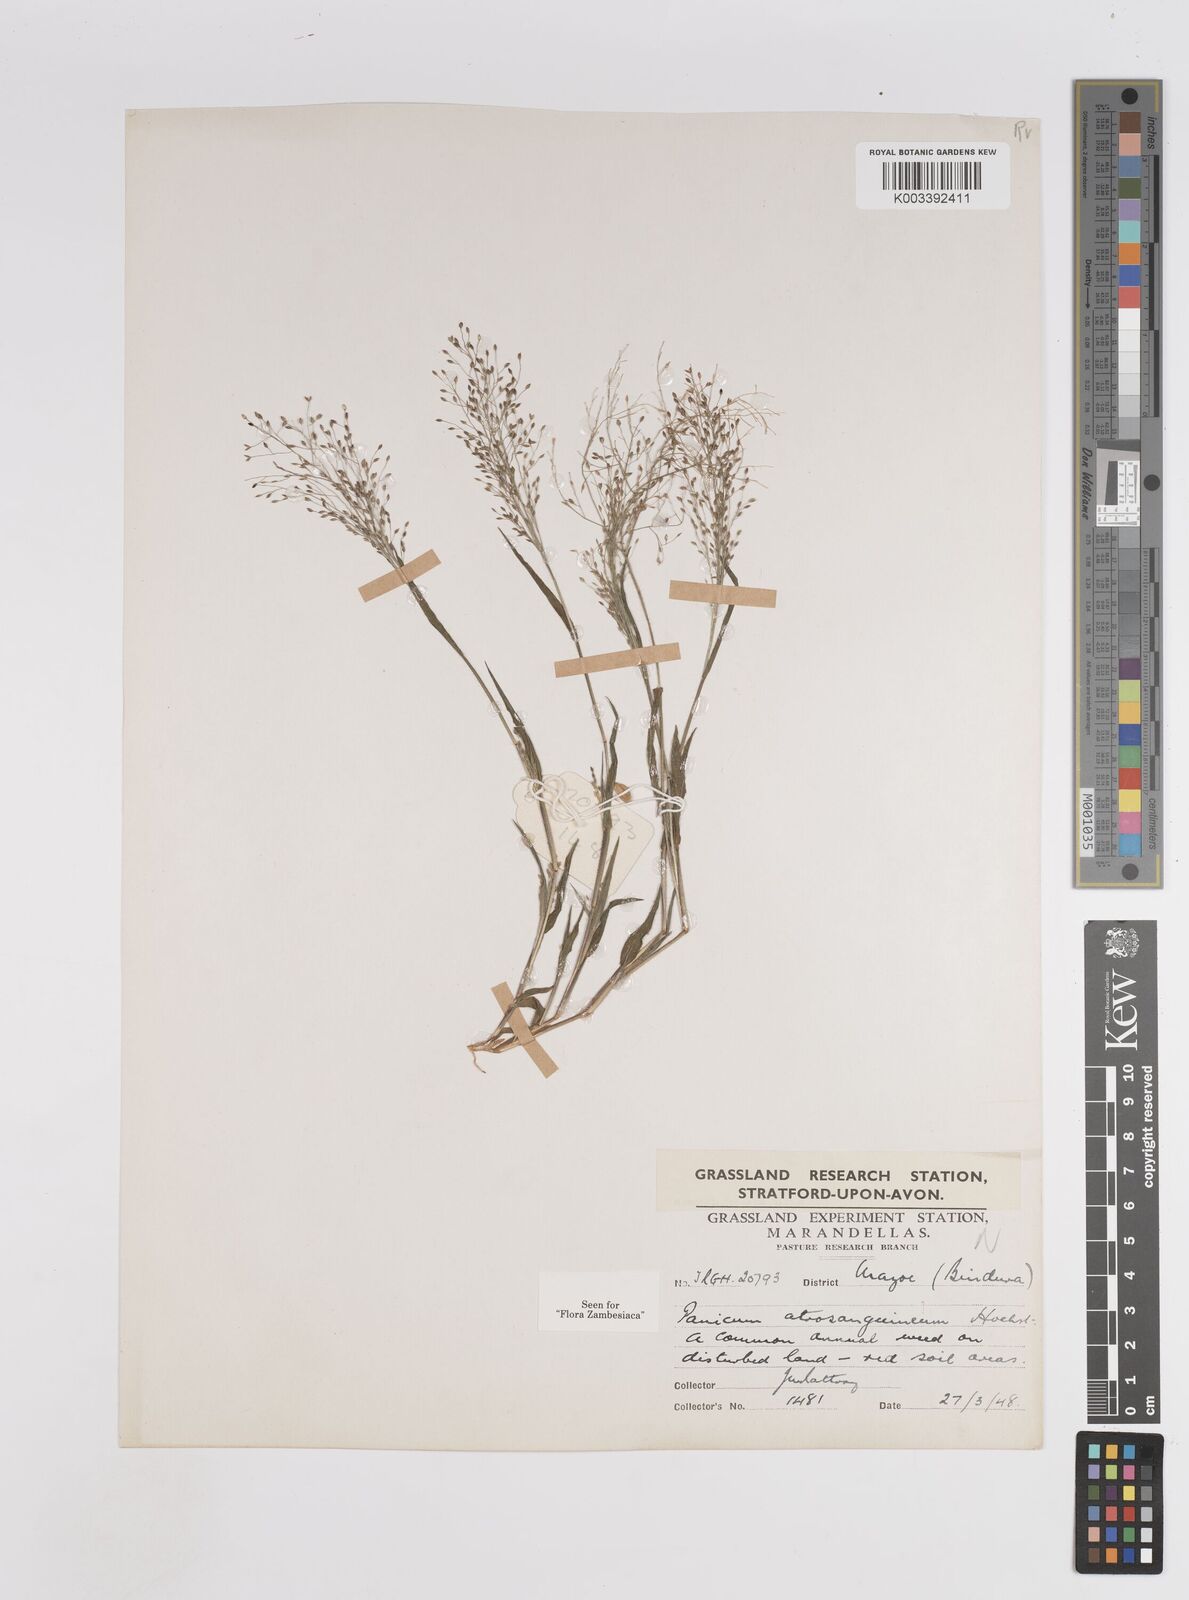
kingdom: Plantae
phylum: Tracheophyta
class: Liliopsida
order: Poales
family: Poaceae
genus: Panicum
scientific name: Panicum atrosanguineum
